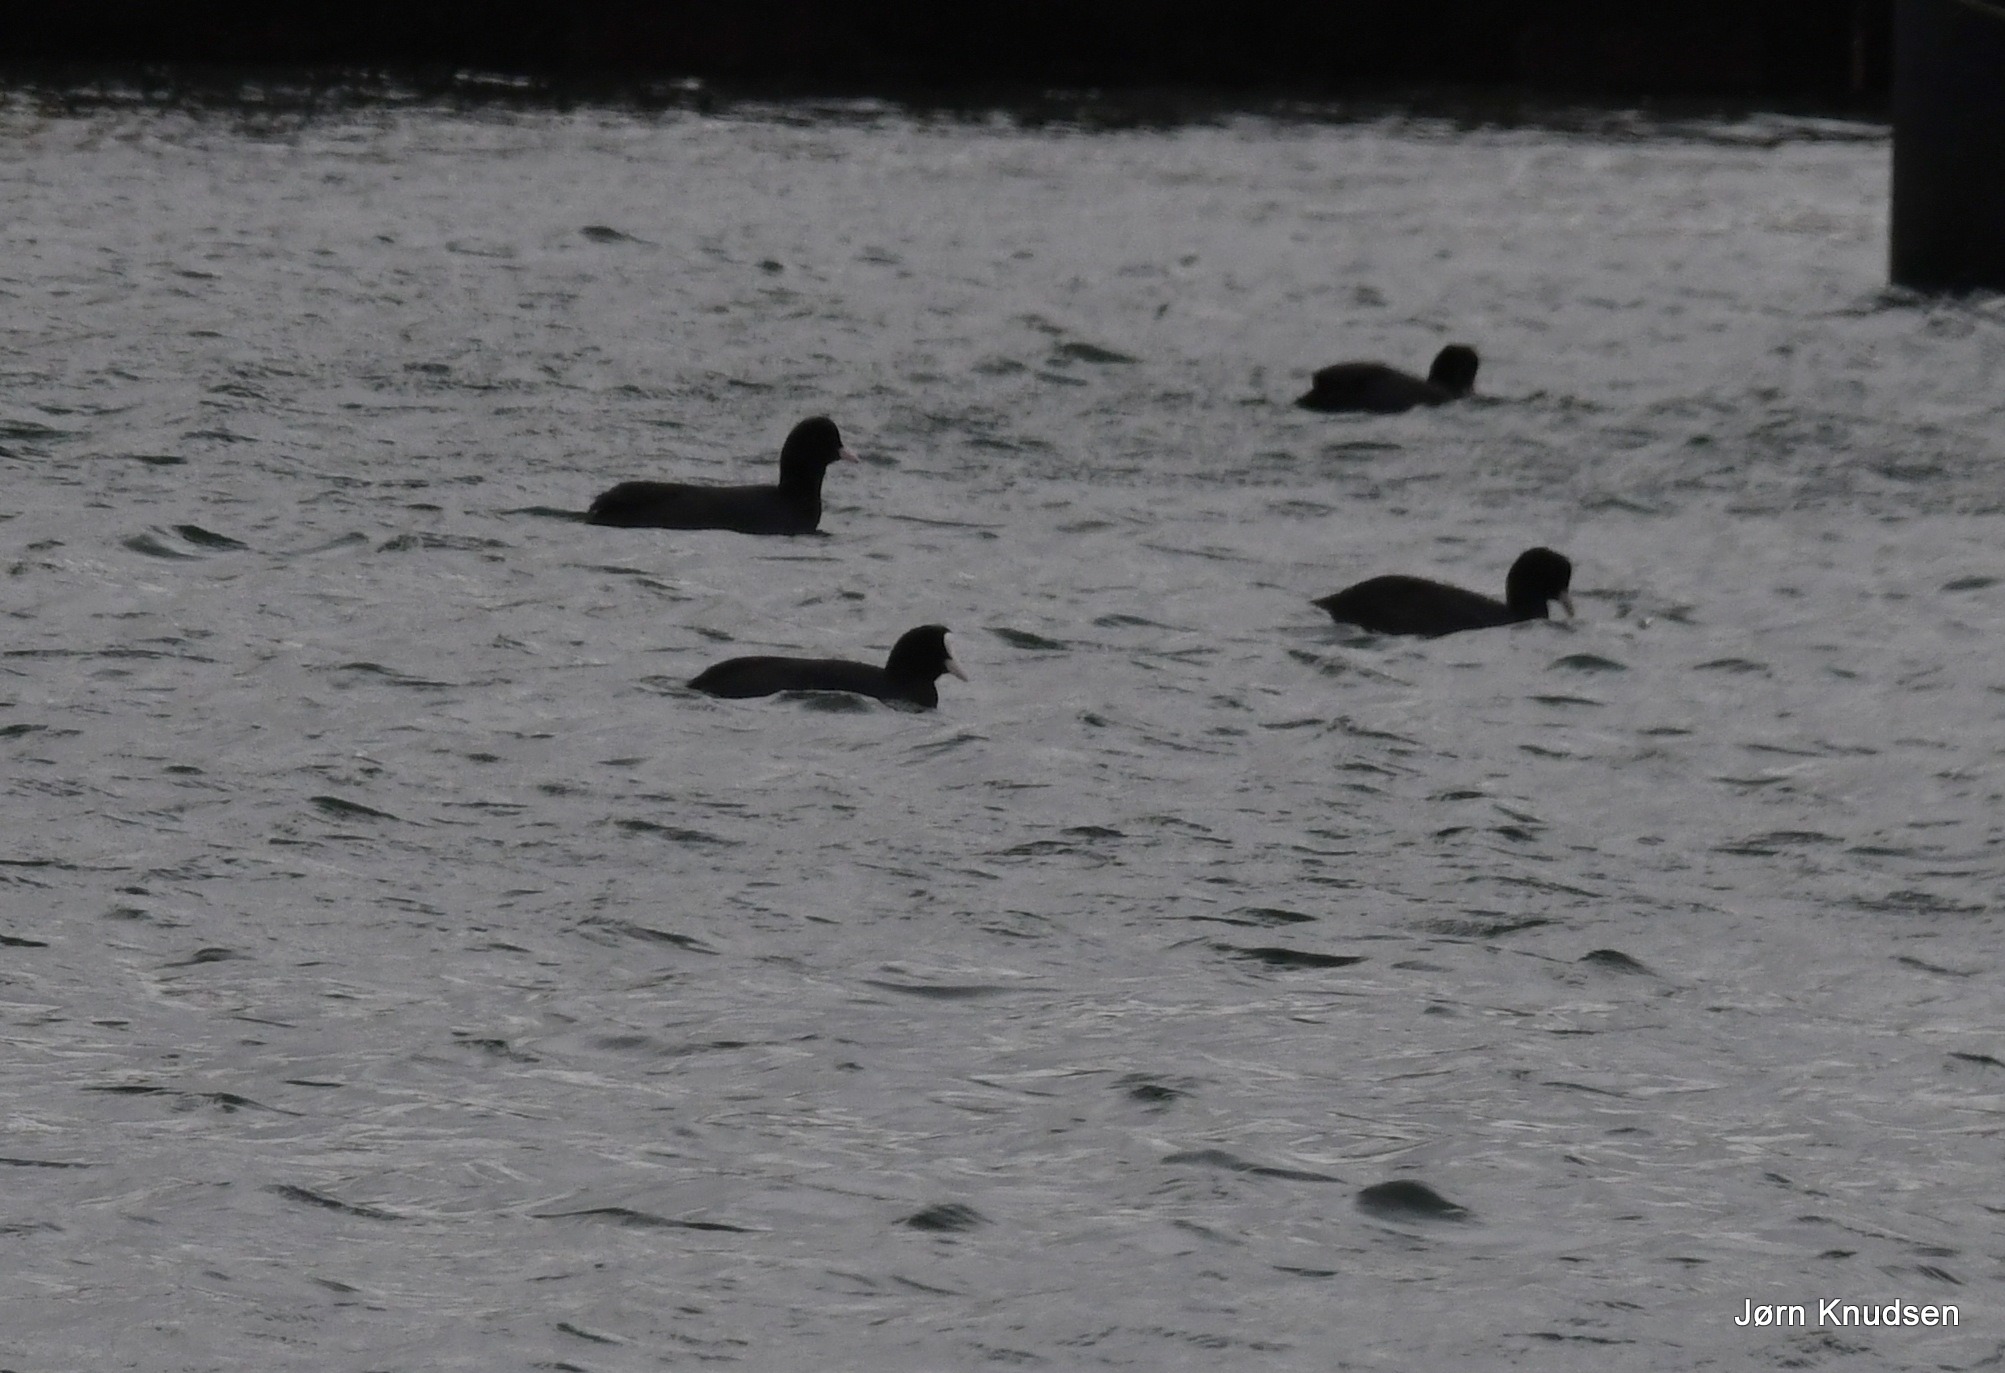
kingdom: Animalia
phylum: Chordata
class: Aves
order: Gruiformes
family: Rallidae
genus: Fulica
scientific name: Fulica atra
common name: Blishøne
